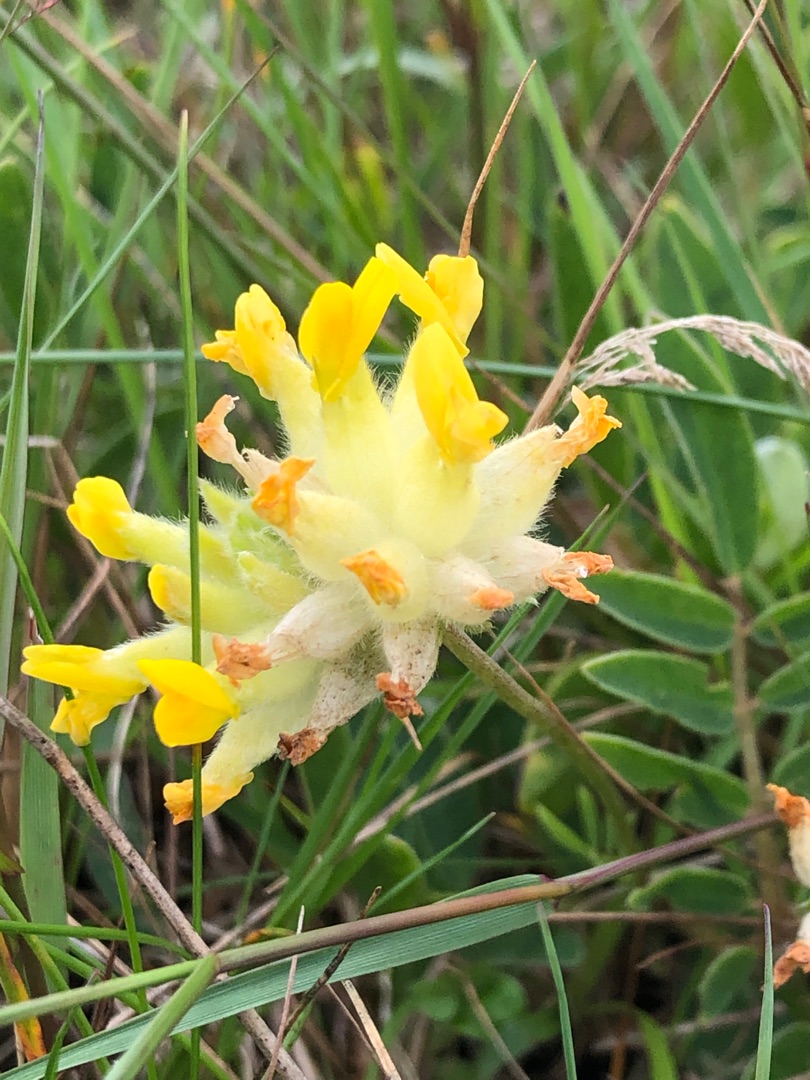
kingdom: Plantae
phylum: Tracheophyta
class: Magnoliopsida
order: Fabales
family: Fabaceae
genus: Anthyllis
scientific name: Anthyllis vulneraria
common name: Rundbælg
